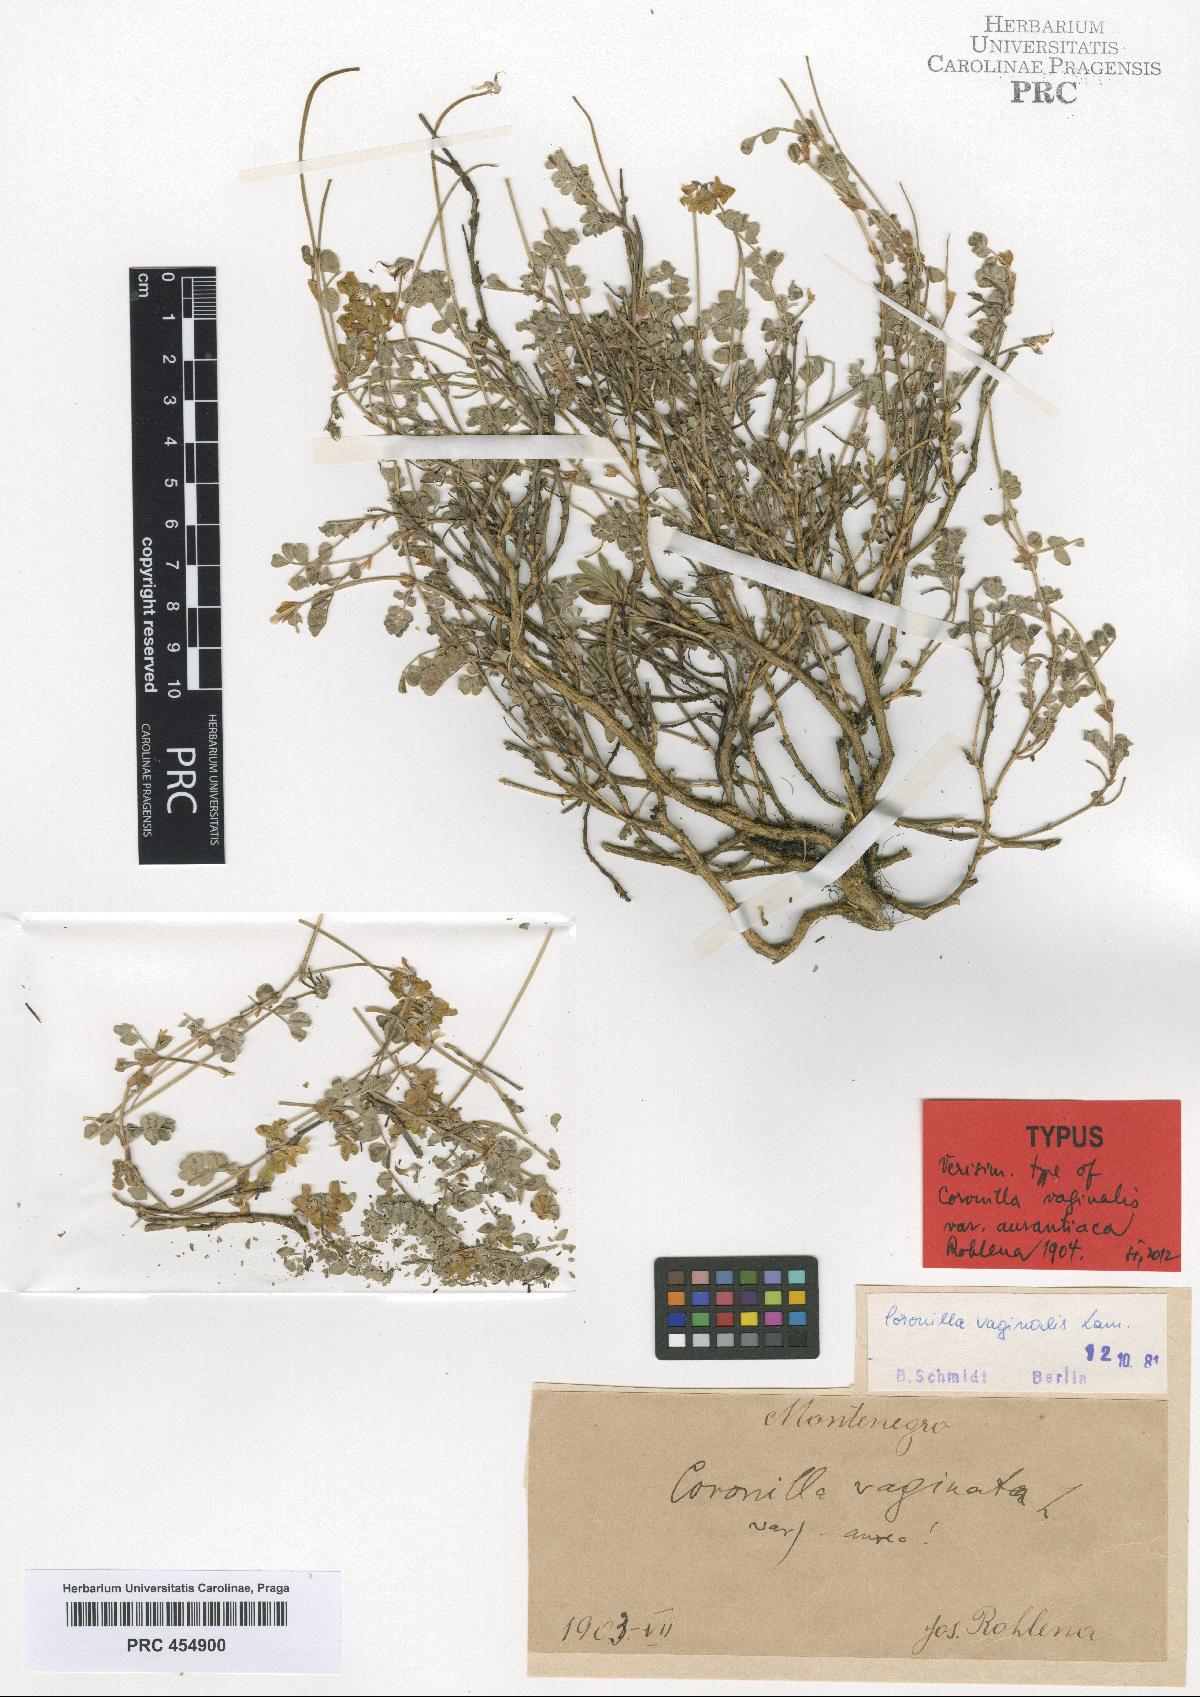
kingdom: Plantae
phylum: Tracheophyta
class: Magnoliopsida
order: Fabales
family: Fabaceae
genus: Coronilla
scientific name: Coronilla vaginalis
